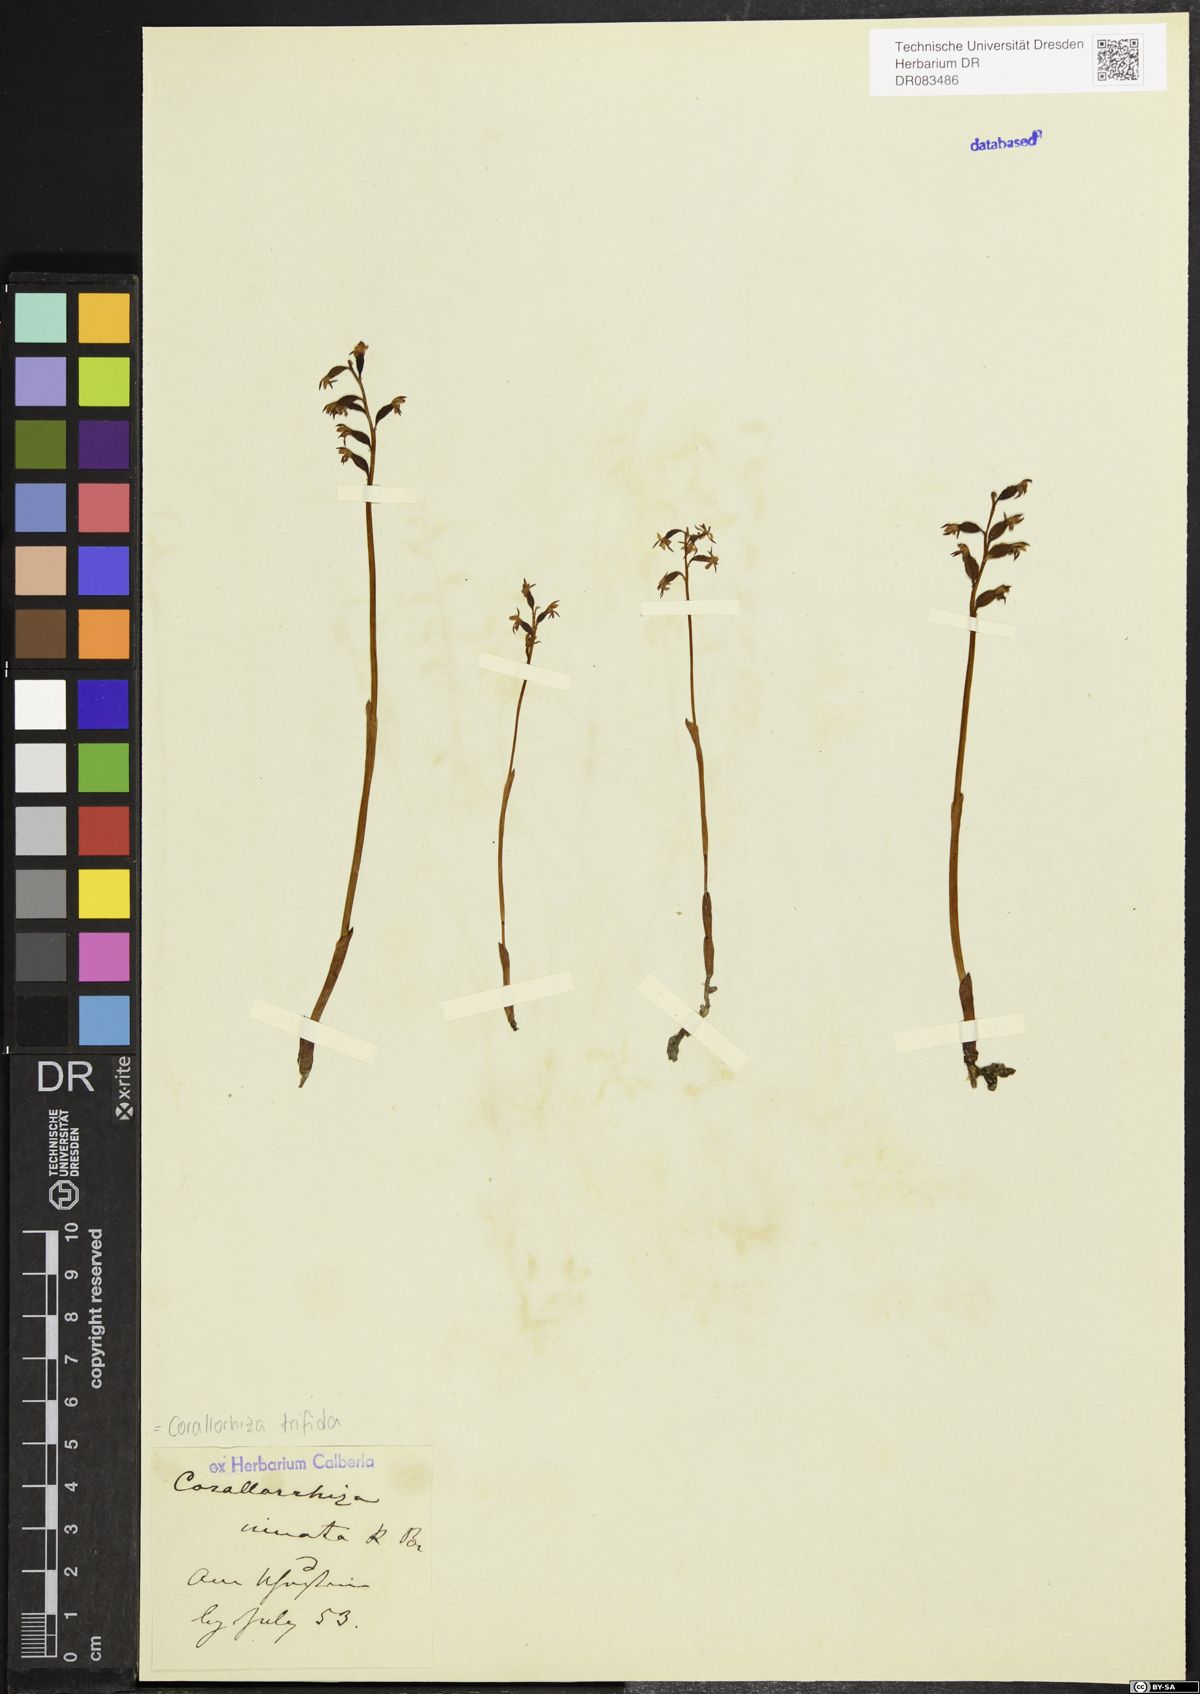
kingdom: Plantae
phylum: Tracheophyta
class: Liliopsida
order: Asparagales
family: Orchidaceae
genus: Corallorhiza
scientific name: Corallorhiza trifida
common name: Yellow coralroot
